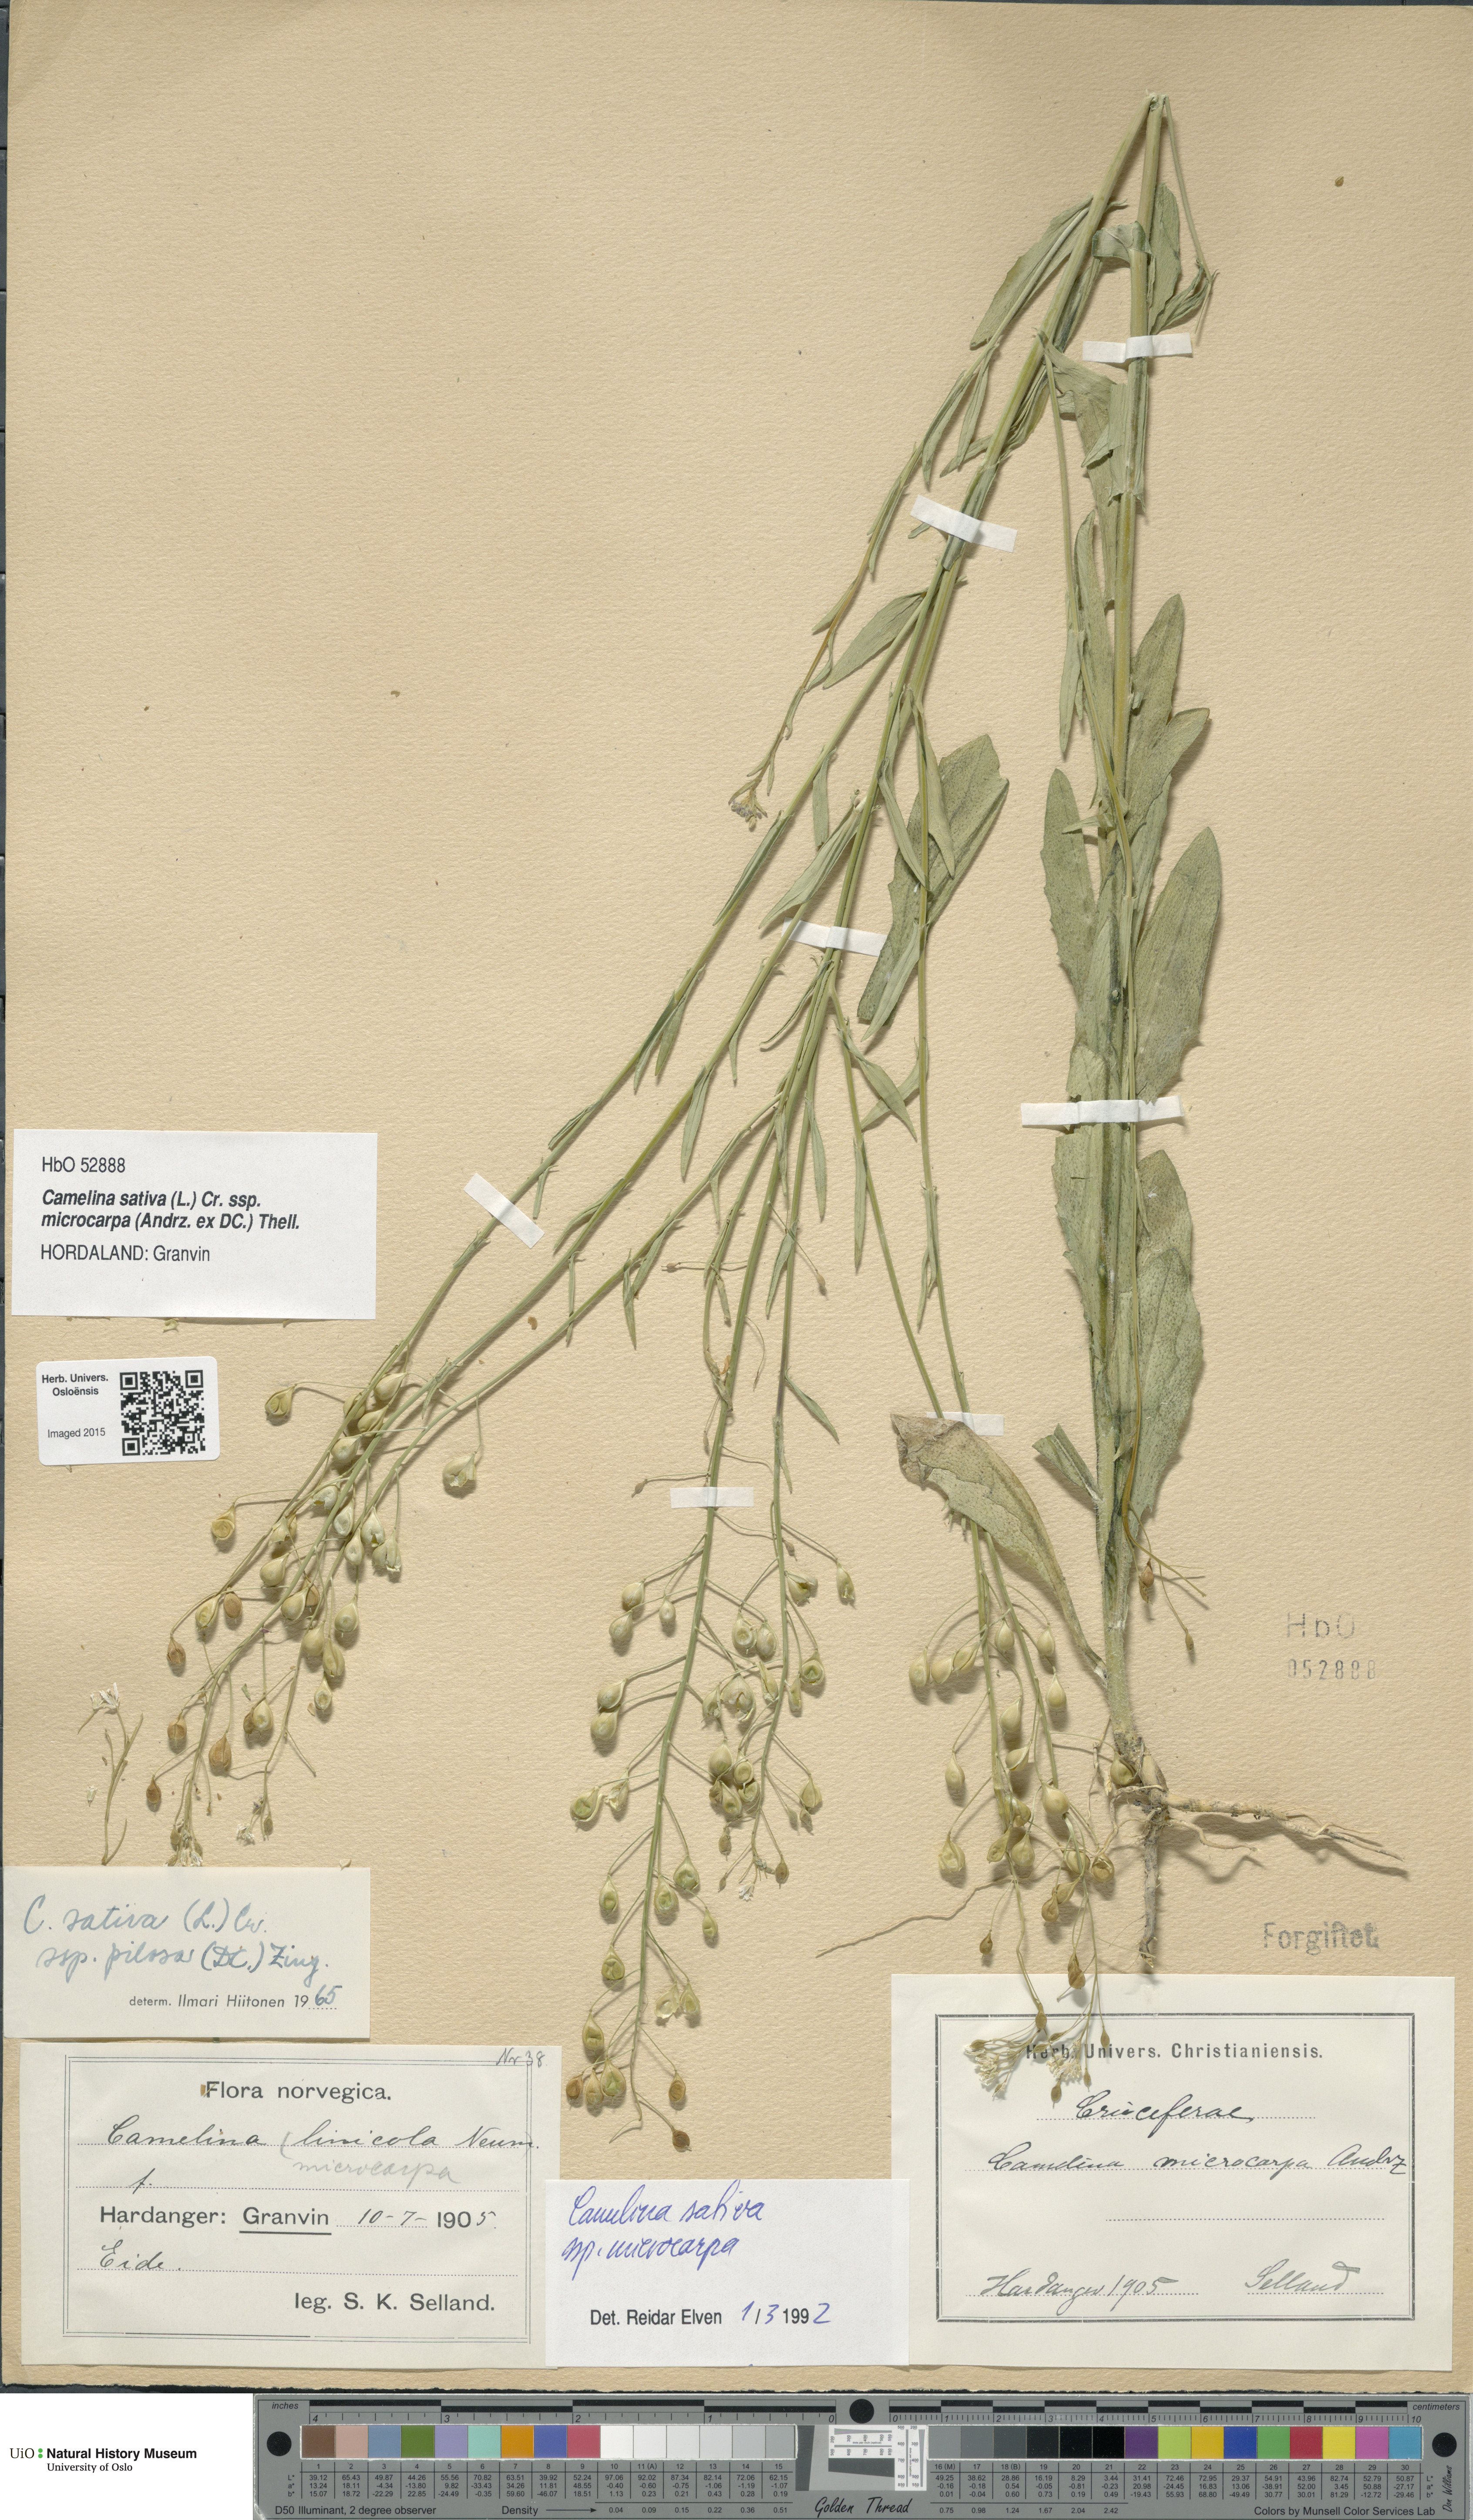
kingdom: Plantae
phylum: Tracheophyta
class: Magnoliopsida
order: Brassicales
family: Brassicaceae
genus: Camelina
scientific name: Camelina sativa
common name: Gold-of-pleasure
